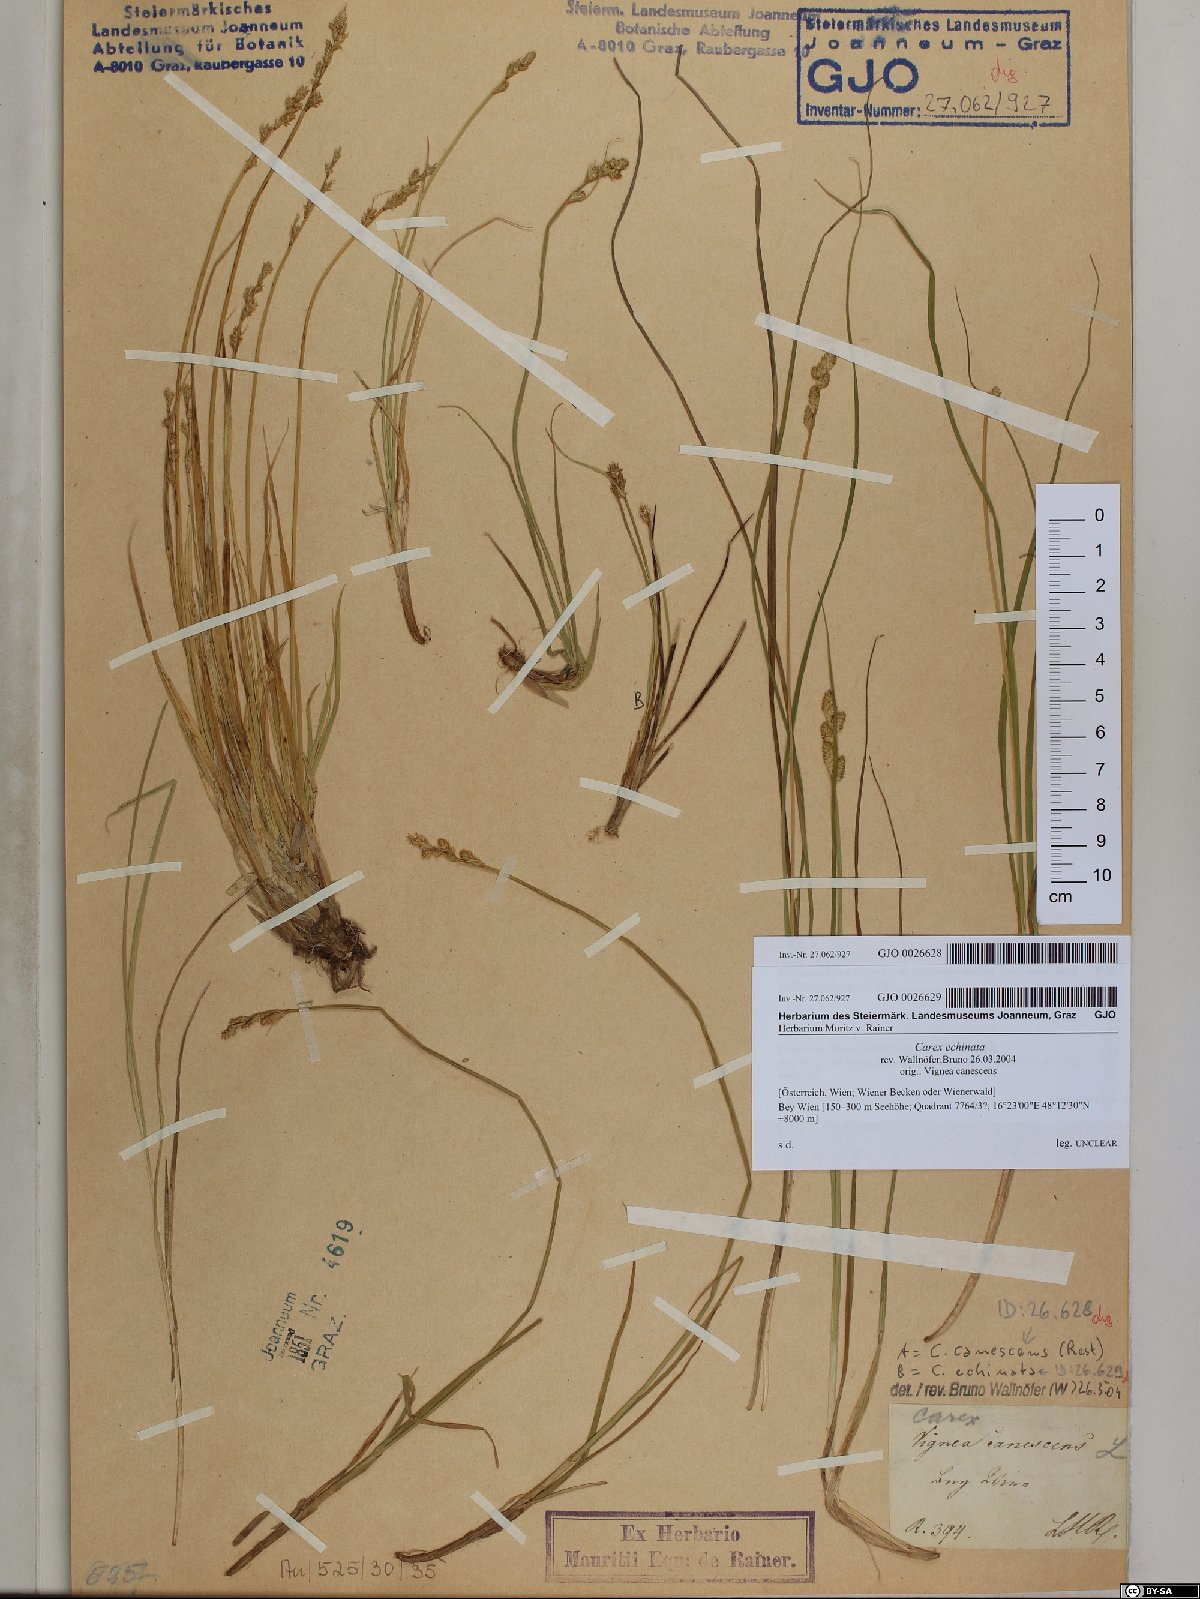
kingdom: Plantae
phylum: Tracheophyta
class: Liliopsida
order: Poales
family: Cyperaceae
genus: Carex
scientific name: Carex echinata
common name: Star sedge
